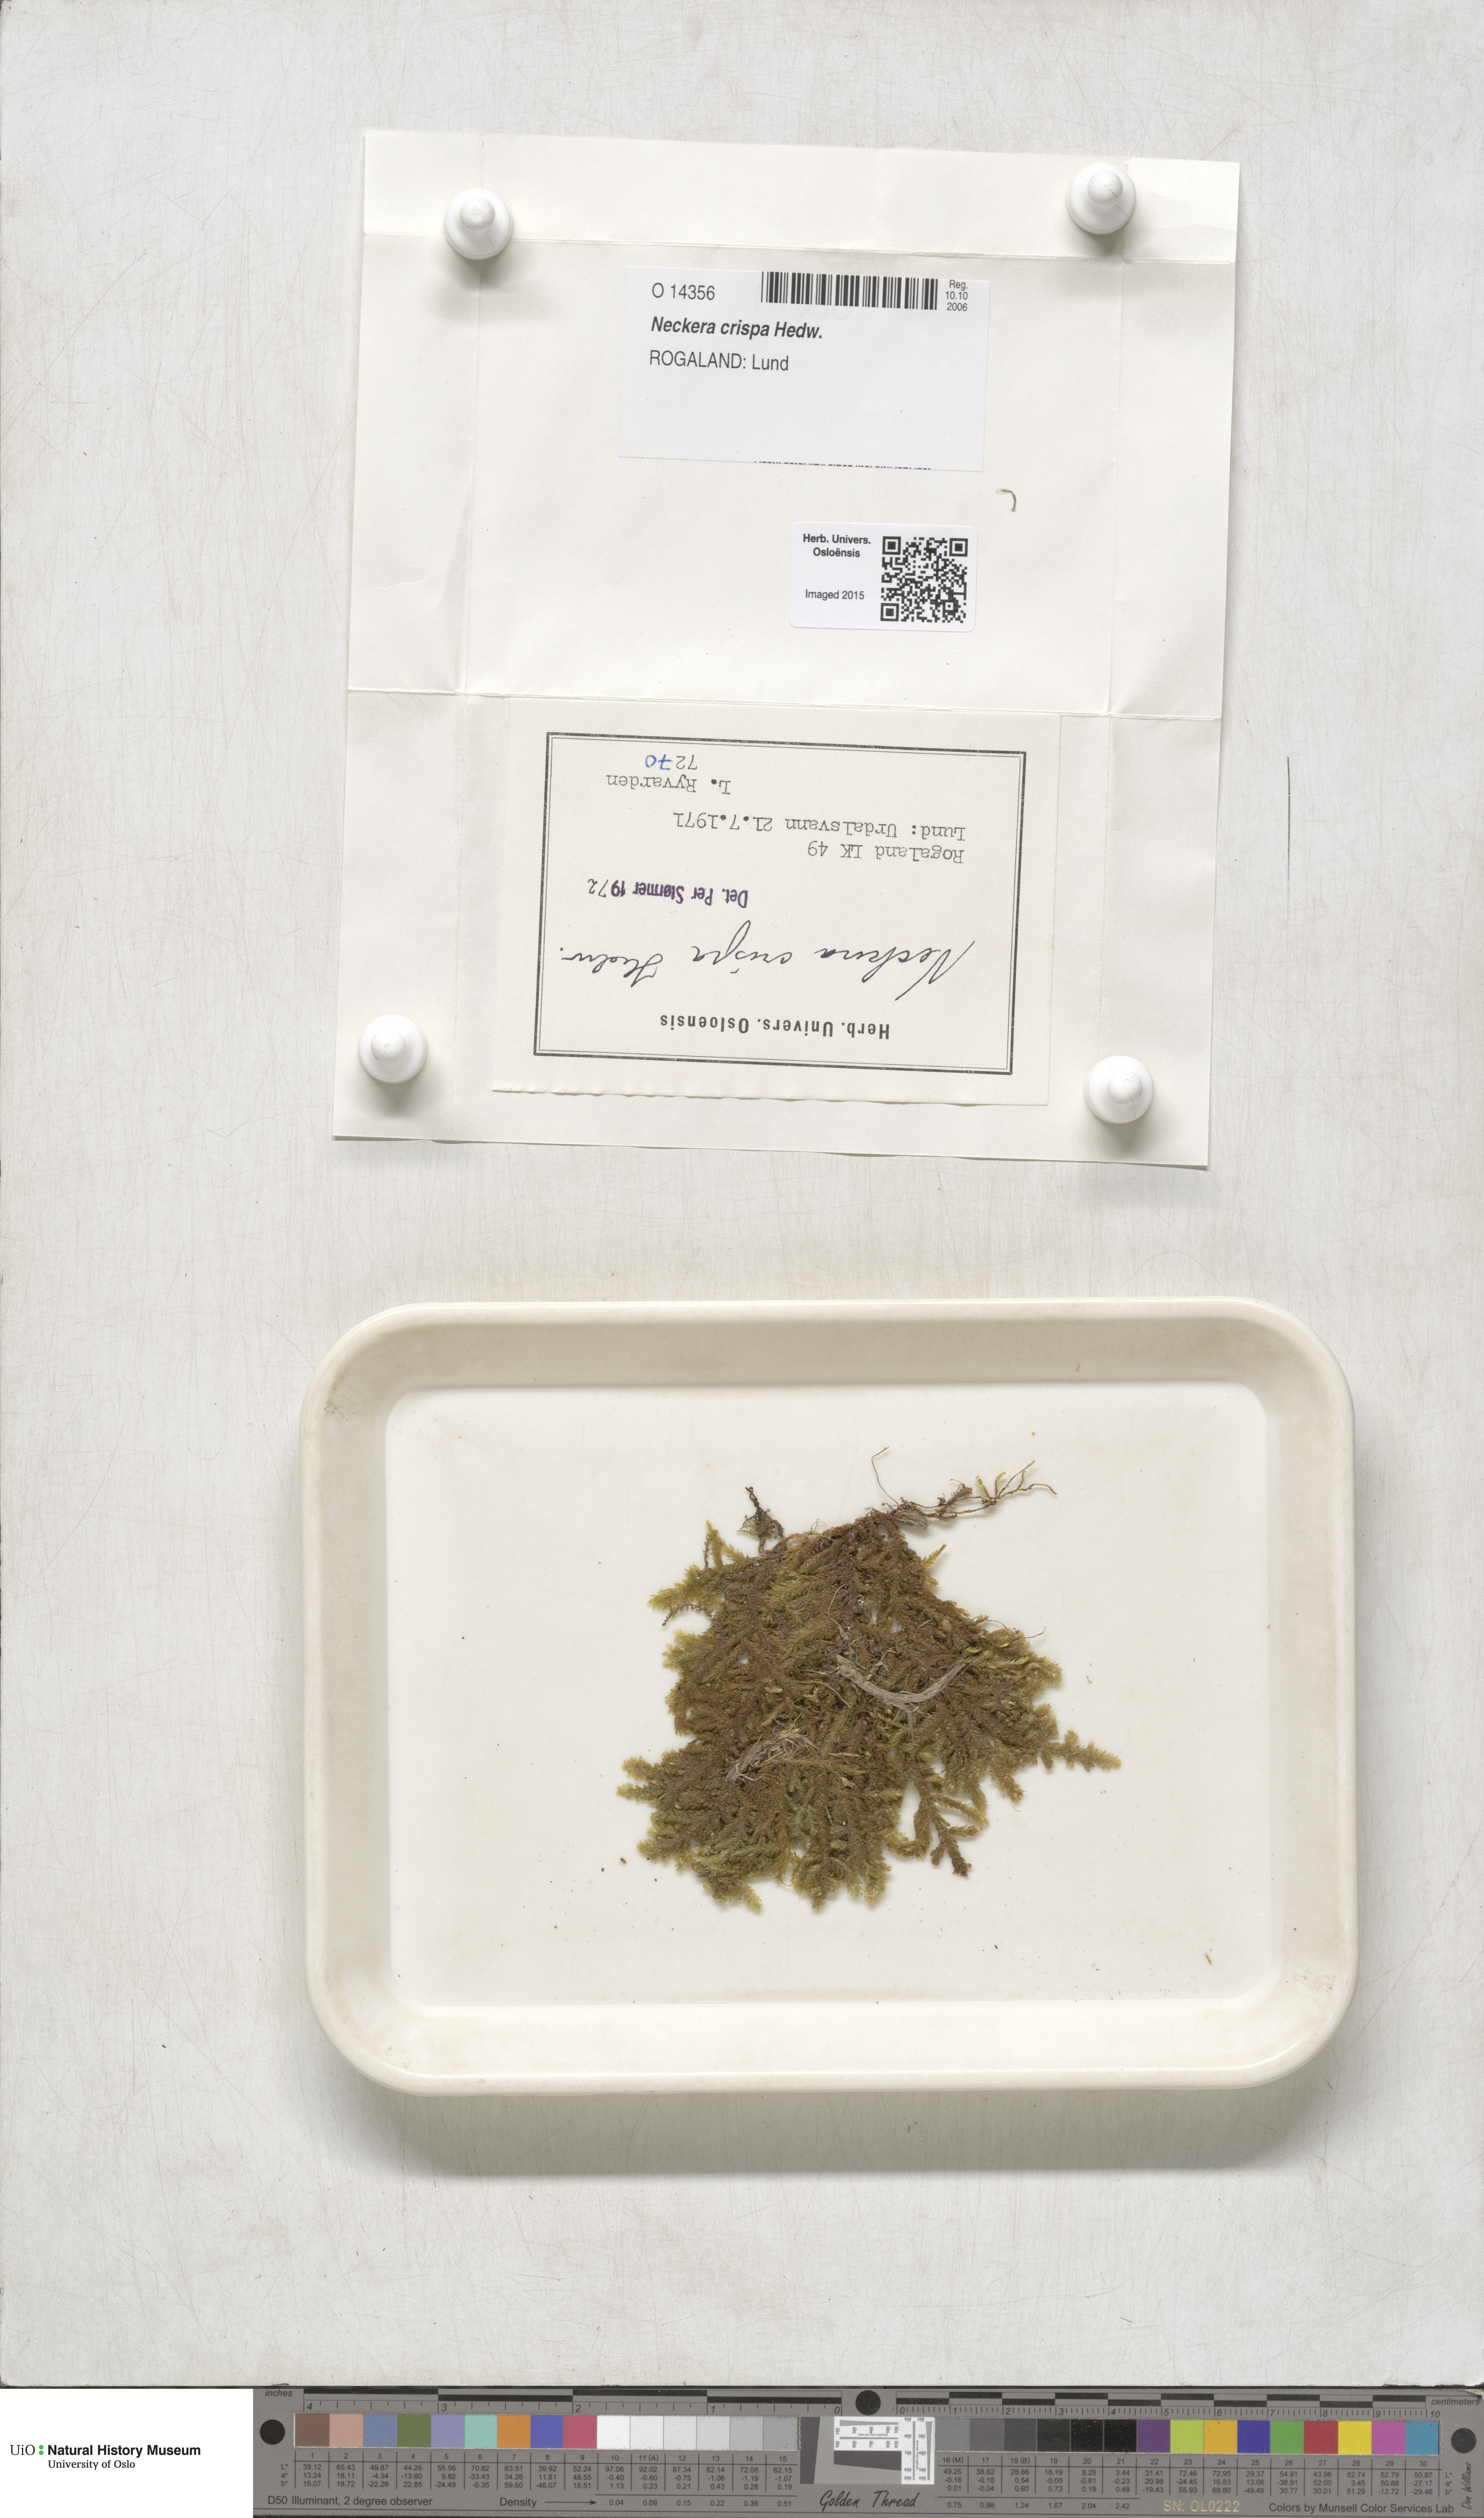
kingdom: Plantae
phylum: Bryophyta
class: Bryopsida
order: Hypnales
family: Neckeraceae
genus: Exsertotheca
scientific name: Exsertotheca crispa
